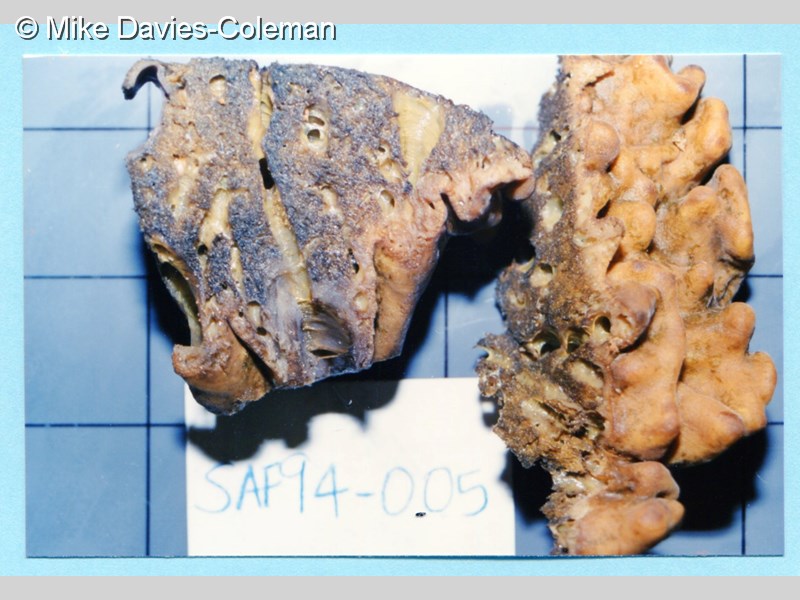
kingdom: Animalia
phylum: Porifera
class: Demospongiae
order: Clionaida
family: Spirastrellidae
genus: Spirastrella
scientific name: Spirastrella
